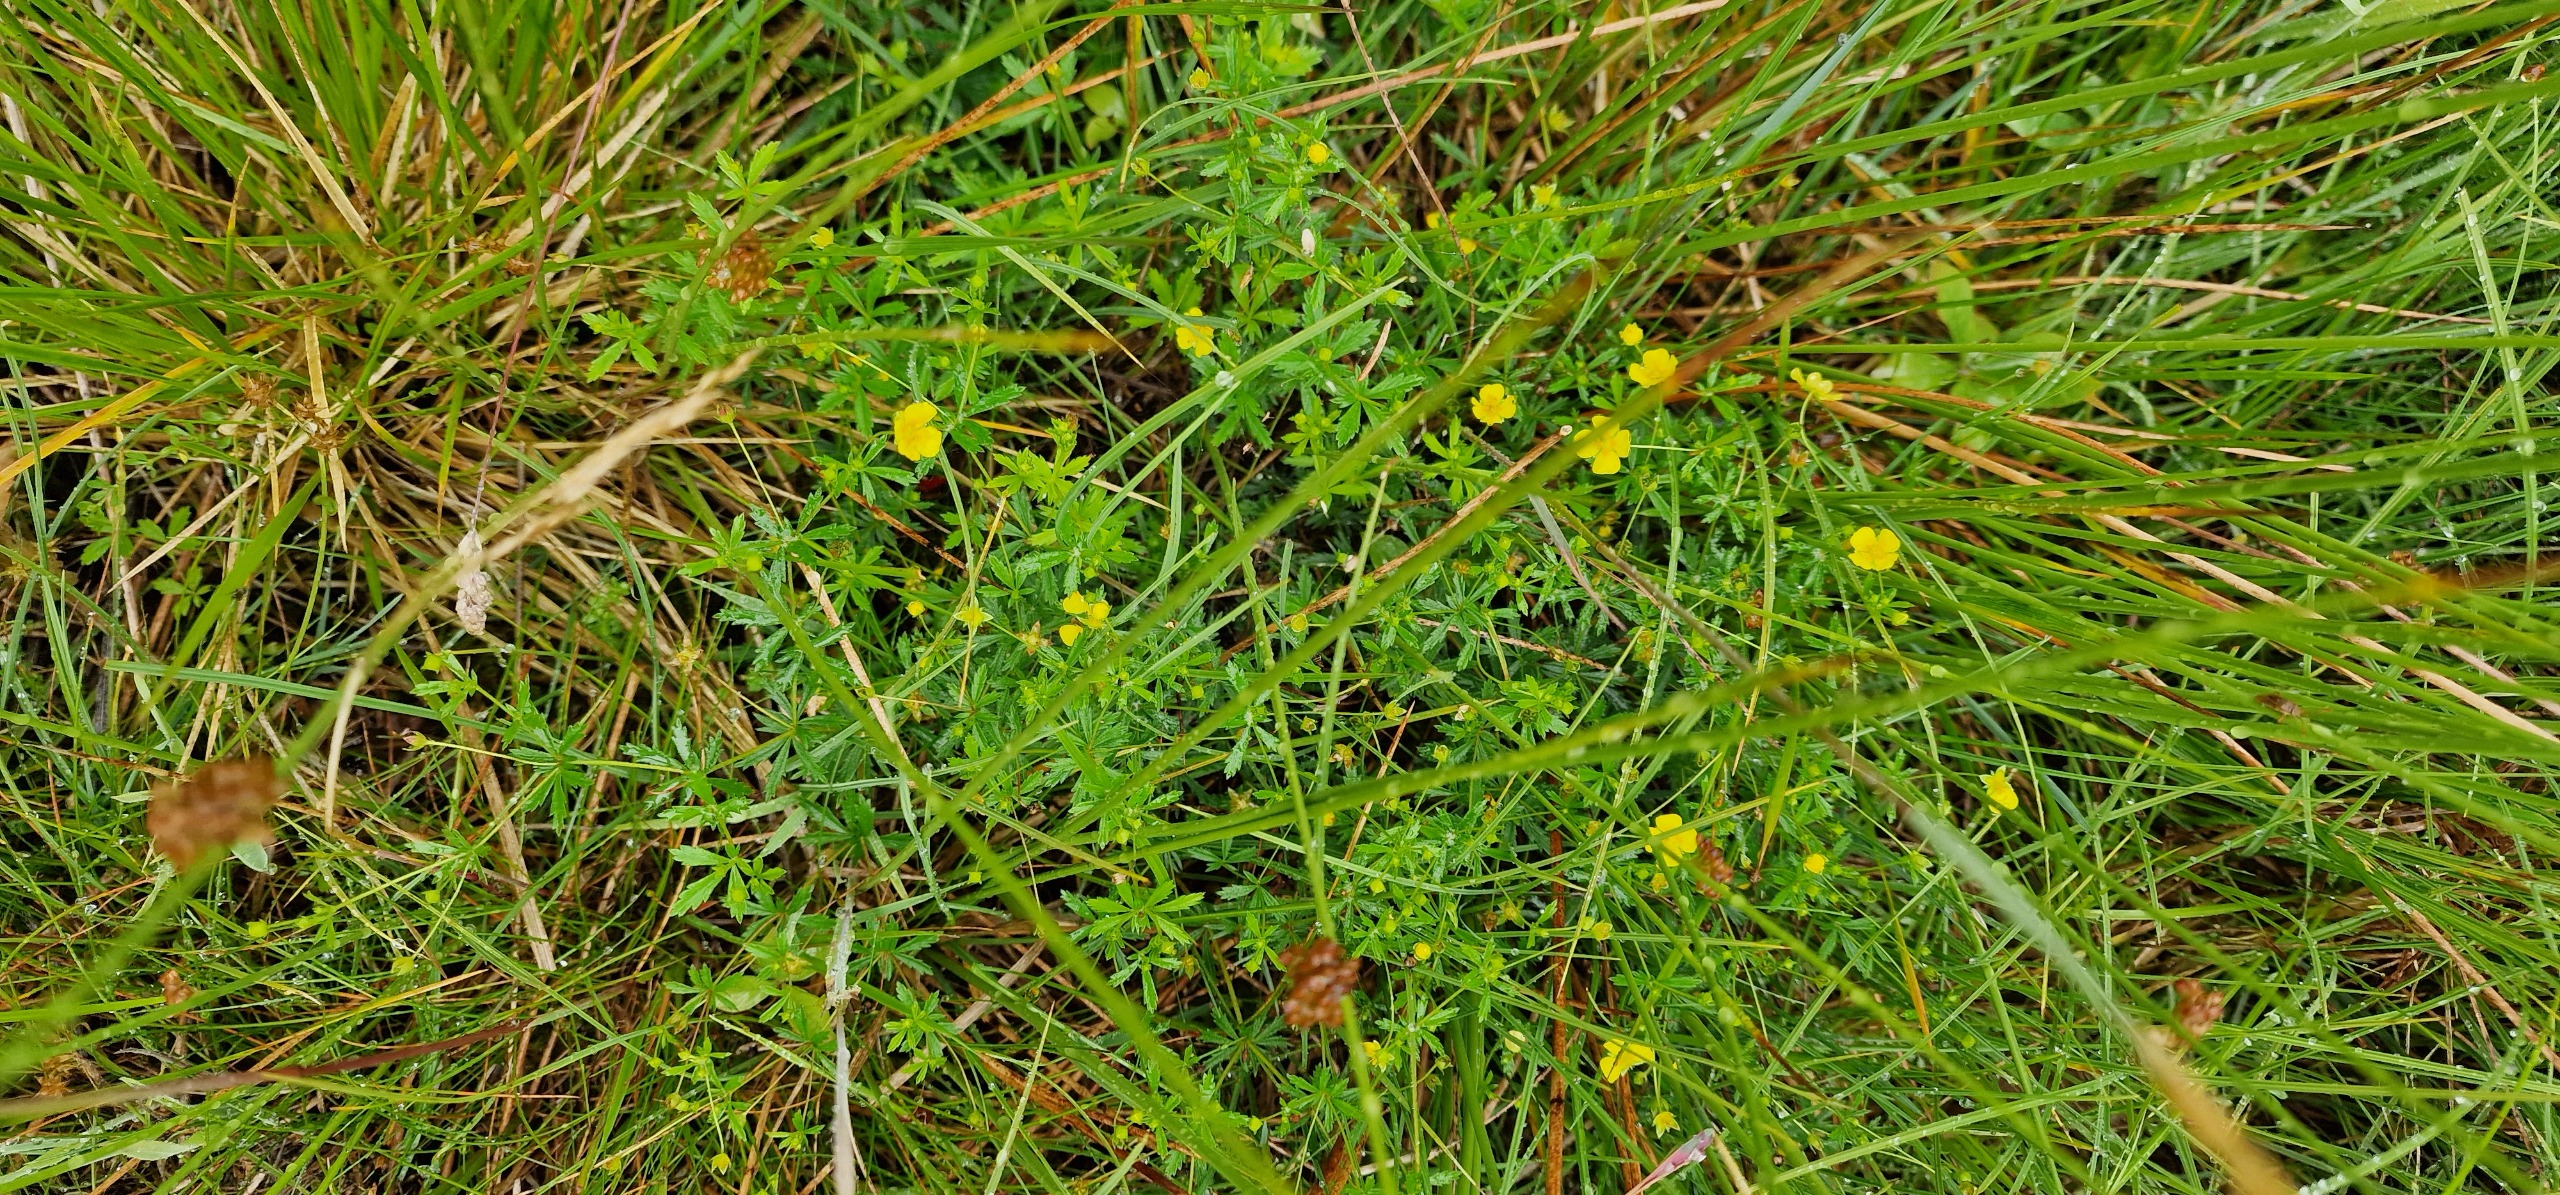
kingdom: Plantae
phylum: Tracheophyta
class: Magnoliopsida
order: Rosales
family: Rosaceae
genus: Potentilla
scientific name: Potentilla erecta
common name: Tormentil
